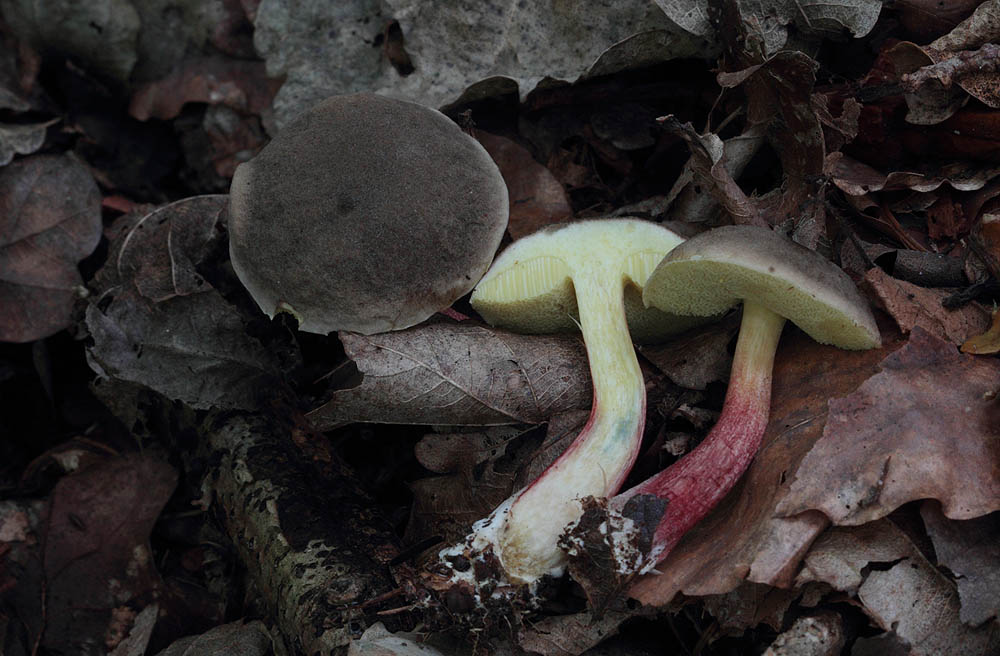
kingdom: Fungi
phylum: Basidiomycota
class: Agaricomycetes
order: Boletales
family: Boletaceae
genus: Xerocomellus
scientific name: Xerocomellus chrysenteron
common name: rødsprukken rørhat
